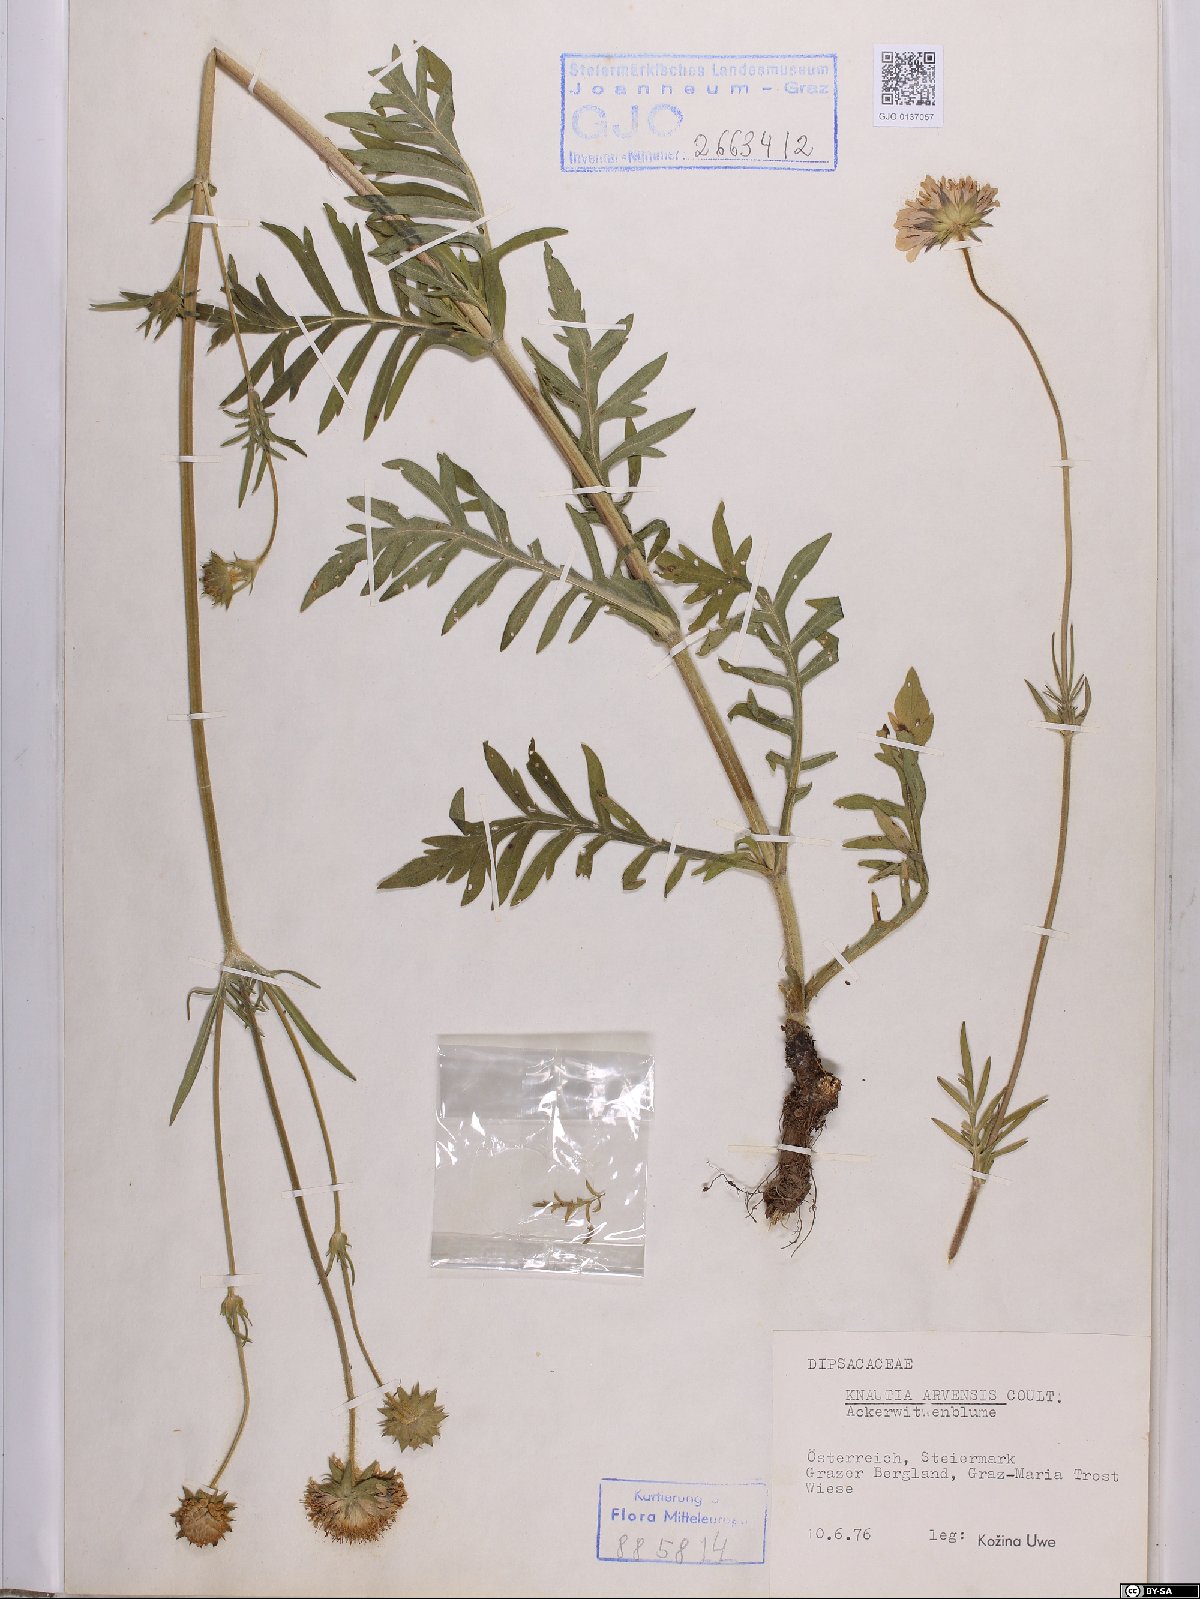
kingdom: Plantae
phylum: Tracheophyta
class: Magnoliopsida
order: Dipsacales
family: Caprifoliaceae
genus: Knautia
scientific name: Knautia arvensis
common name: Field scabiosa
